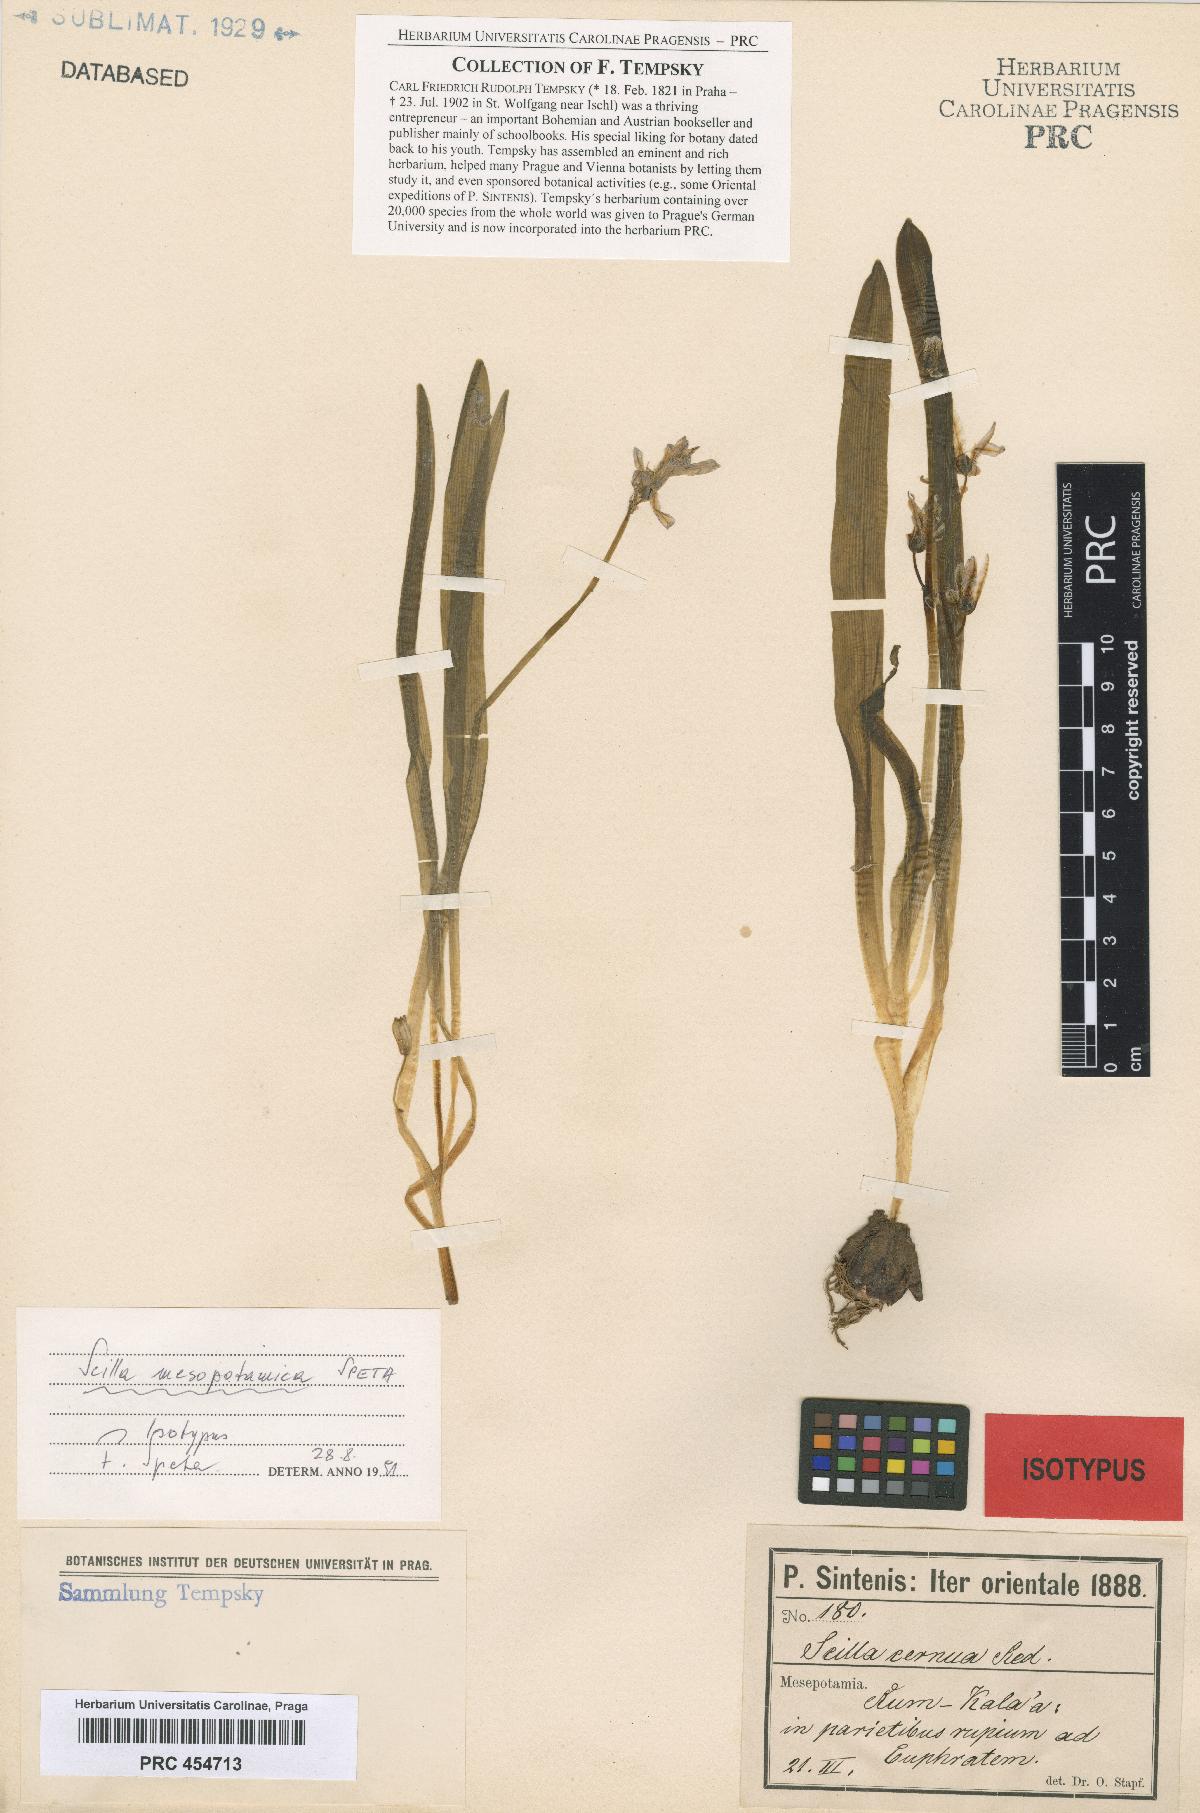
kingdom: Plantae
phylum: Tracheophyta
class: Liliopsida
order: Asparagales
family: Asparagaceae
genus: Scilla
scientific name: Scilla mesopotamica
